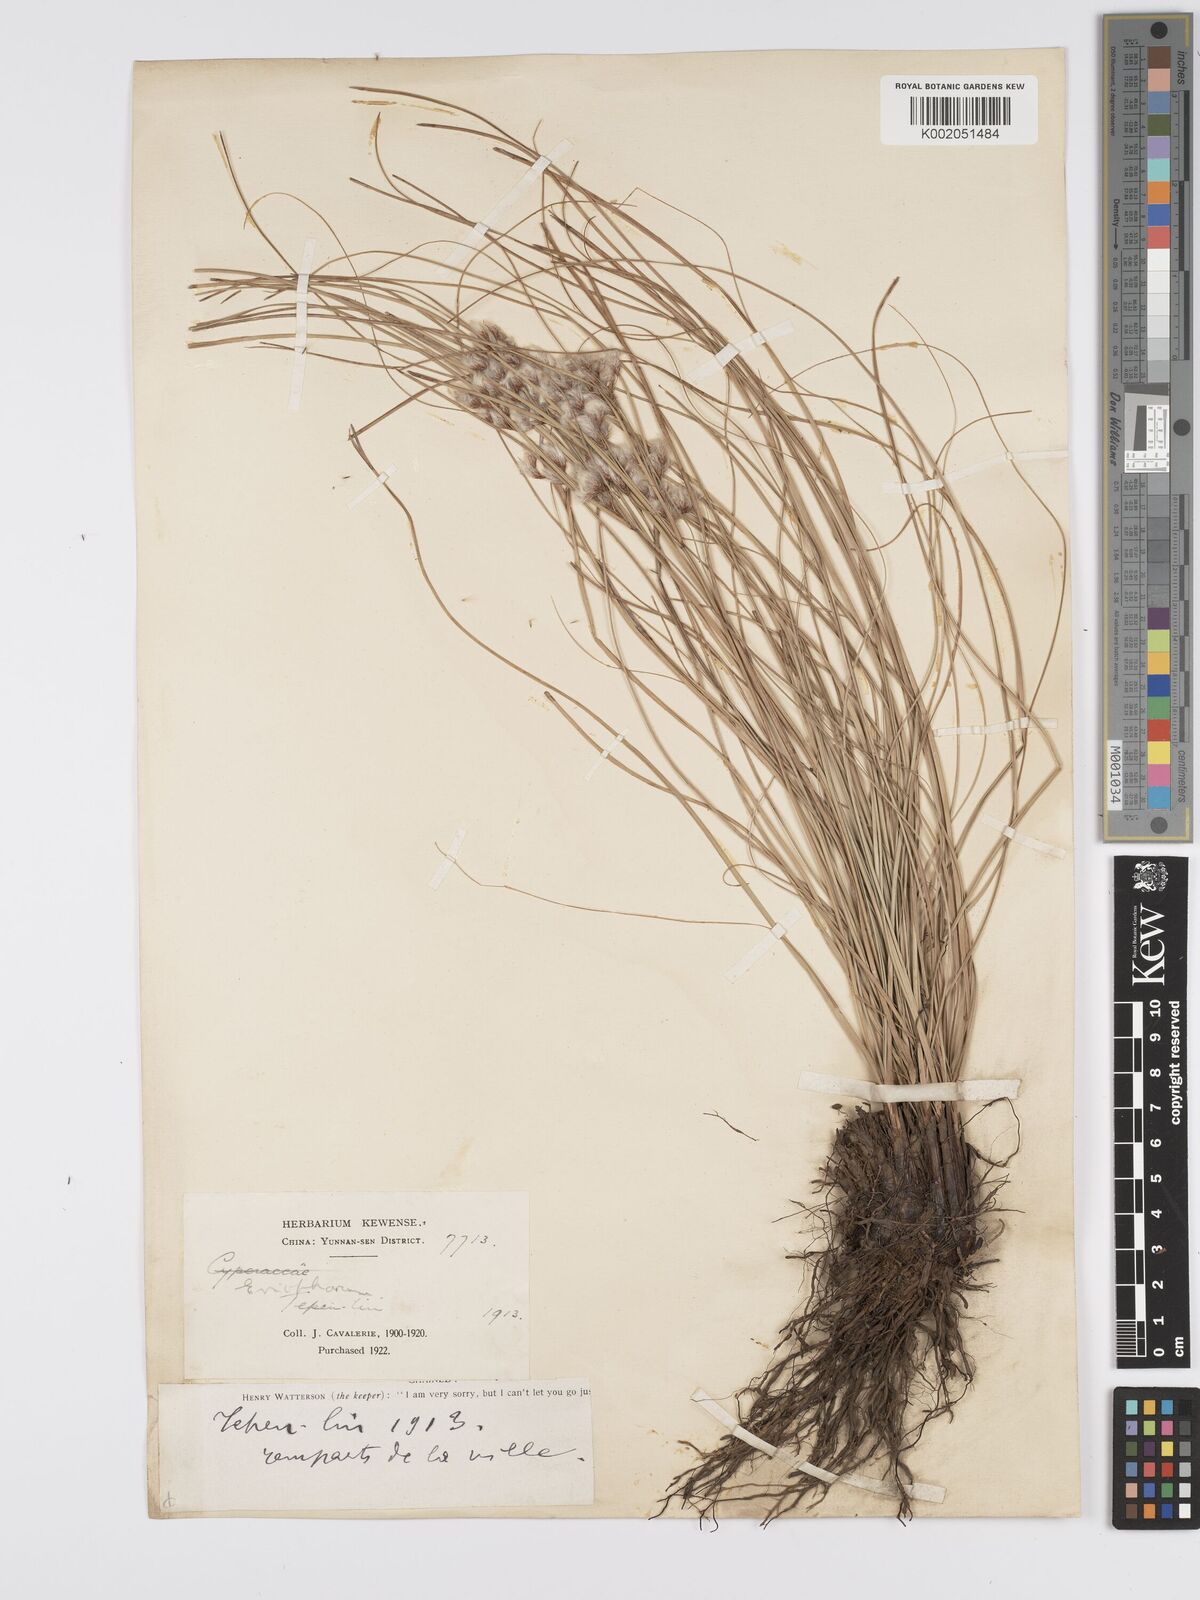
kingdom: Plantae
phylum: Tracheophyta
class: Liliopsida
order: Poales
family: Cyperaceae
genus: Erioscirpus
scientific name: Erioscirpus comosus
